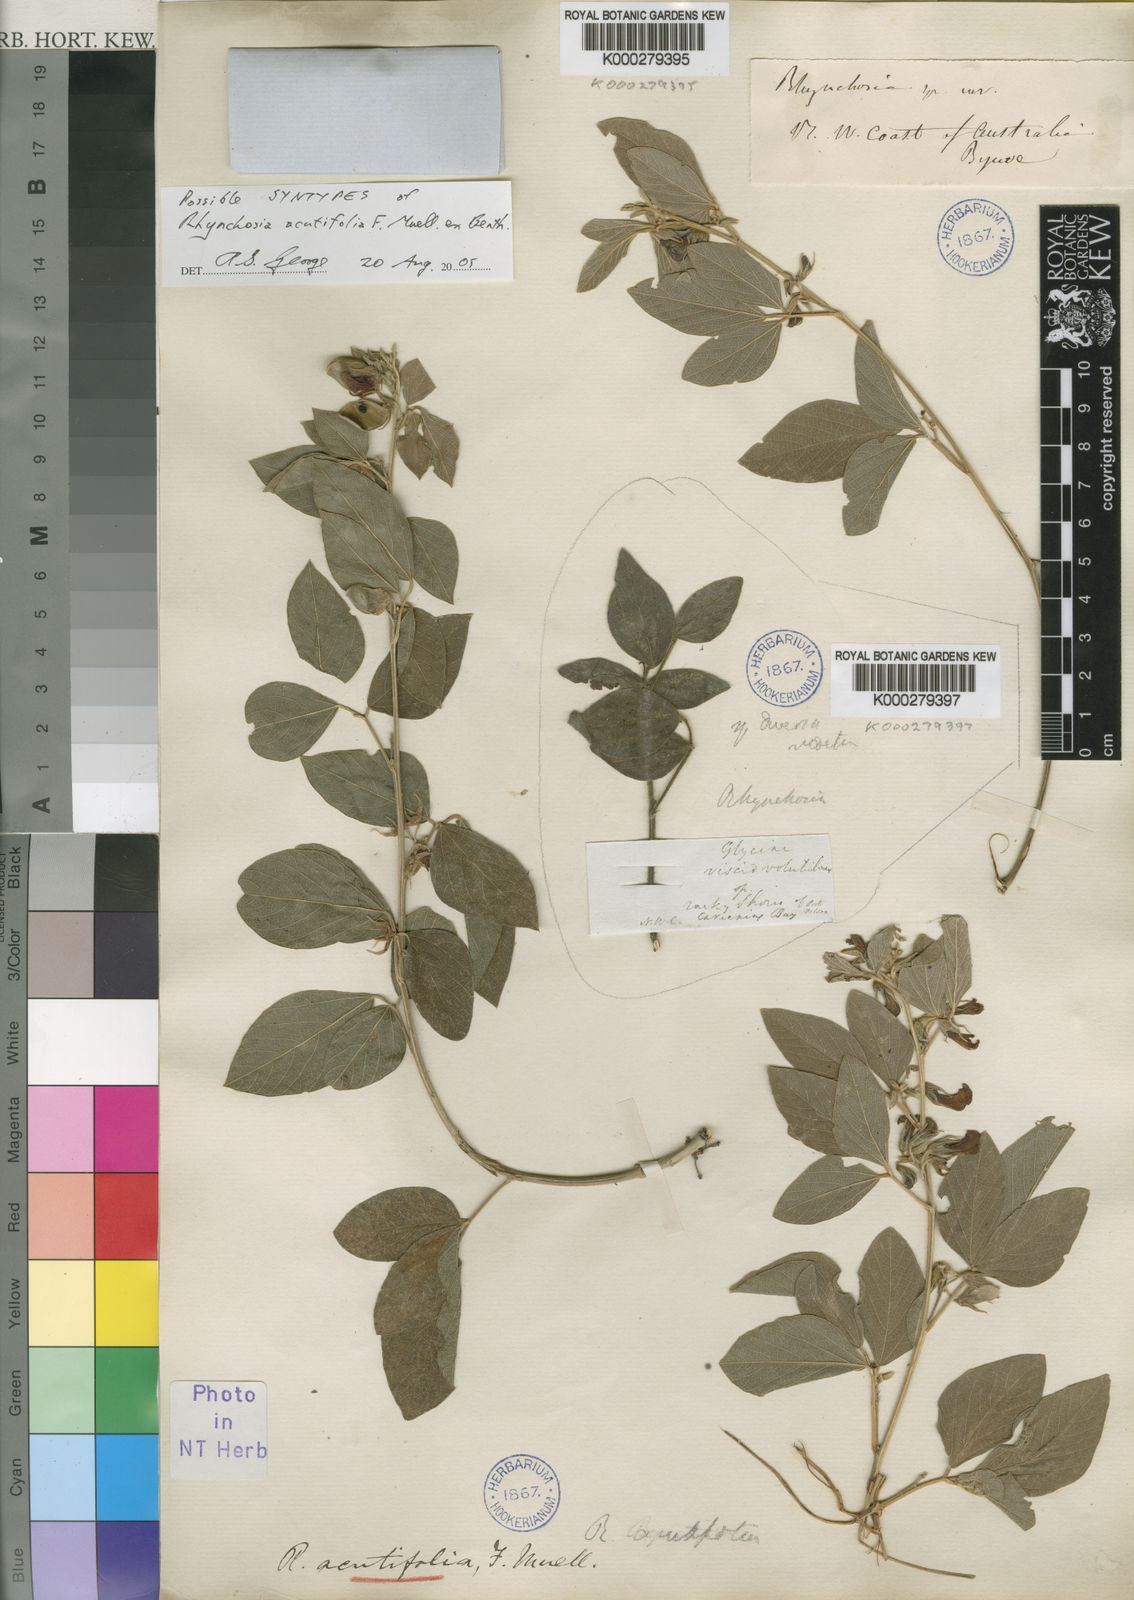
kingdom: Plantae
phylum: Tracheophyta
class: Magnoliopsida
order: Fabales
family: Fabaceae
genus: Cajanus
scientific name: Cajanus acutifolius
